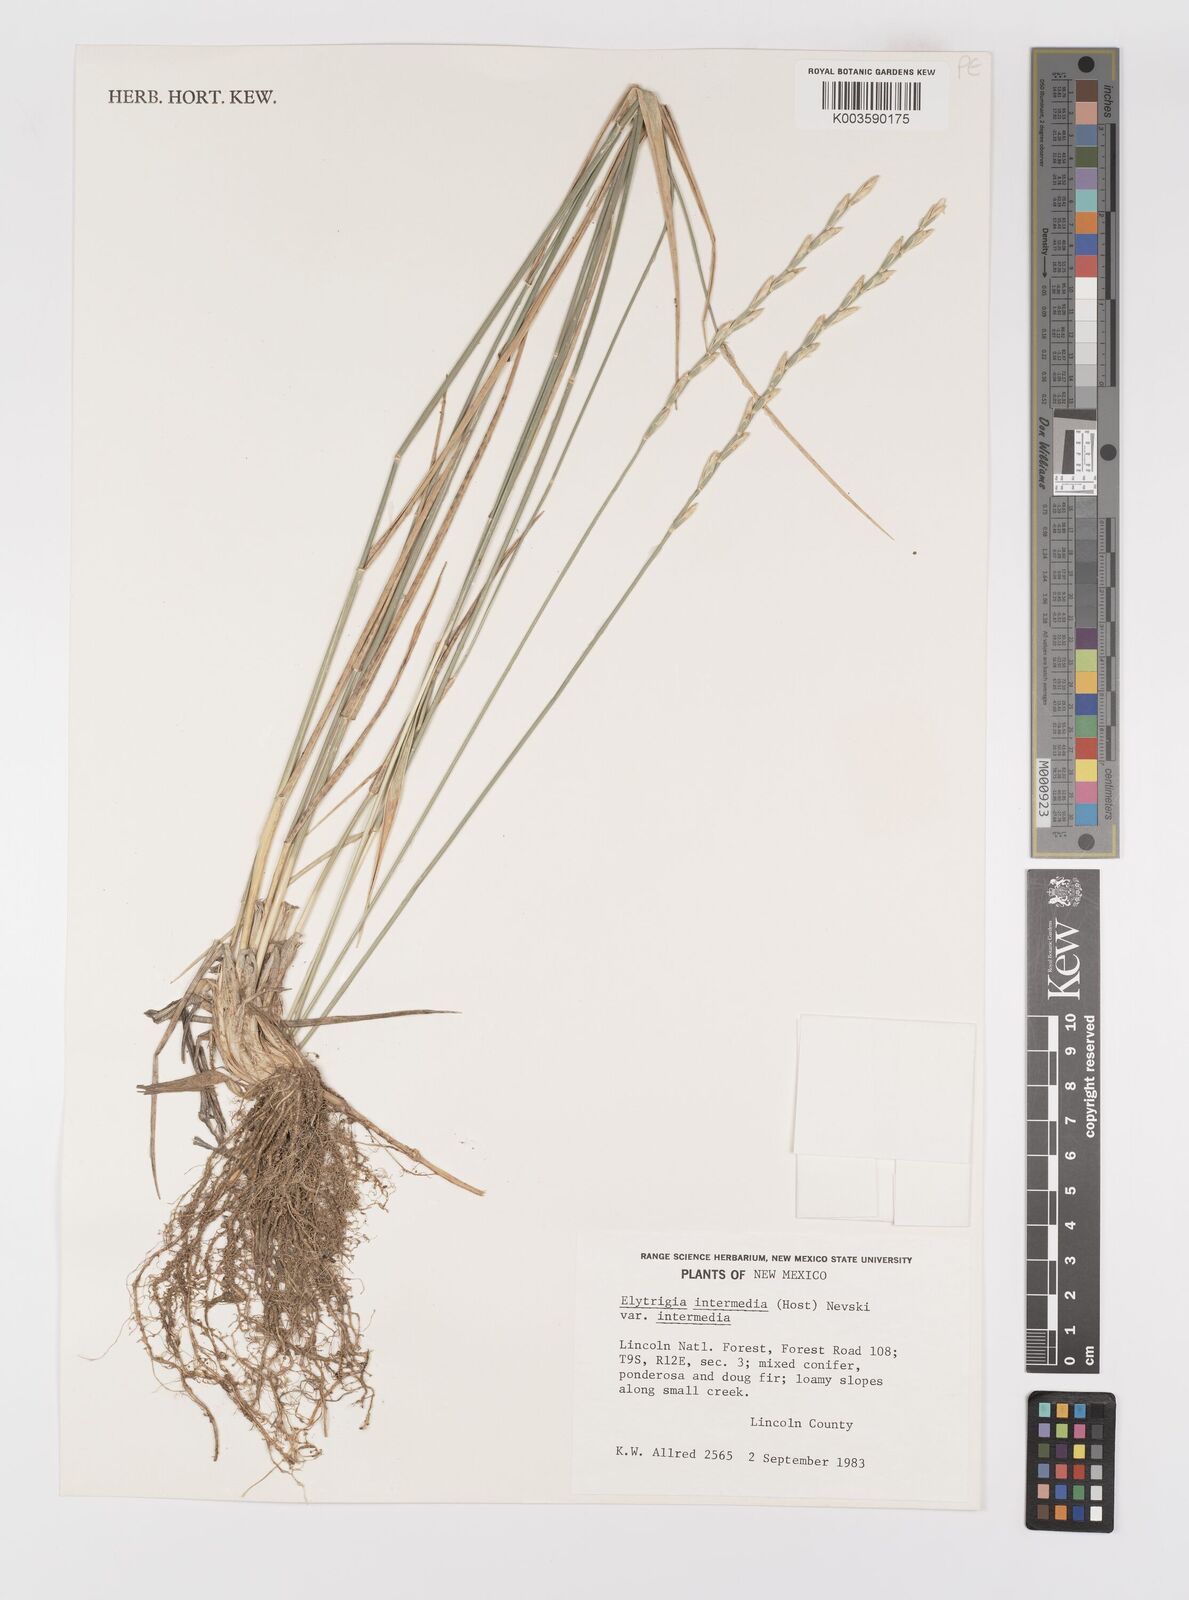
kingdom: Plantae
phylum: Tracheophyta
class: Liliopsida
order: Poales
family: Poaceae
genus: Thinopyrum
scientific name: Thinopyrum intermedium
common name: Intermediate wheatgrass
